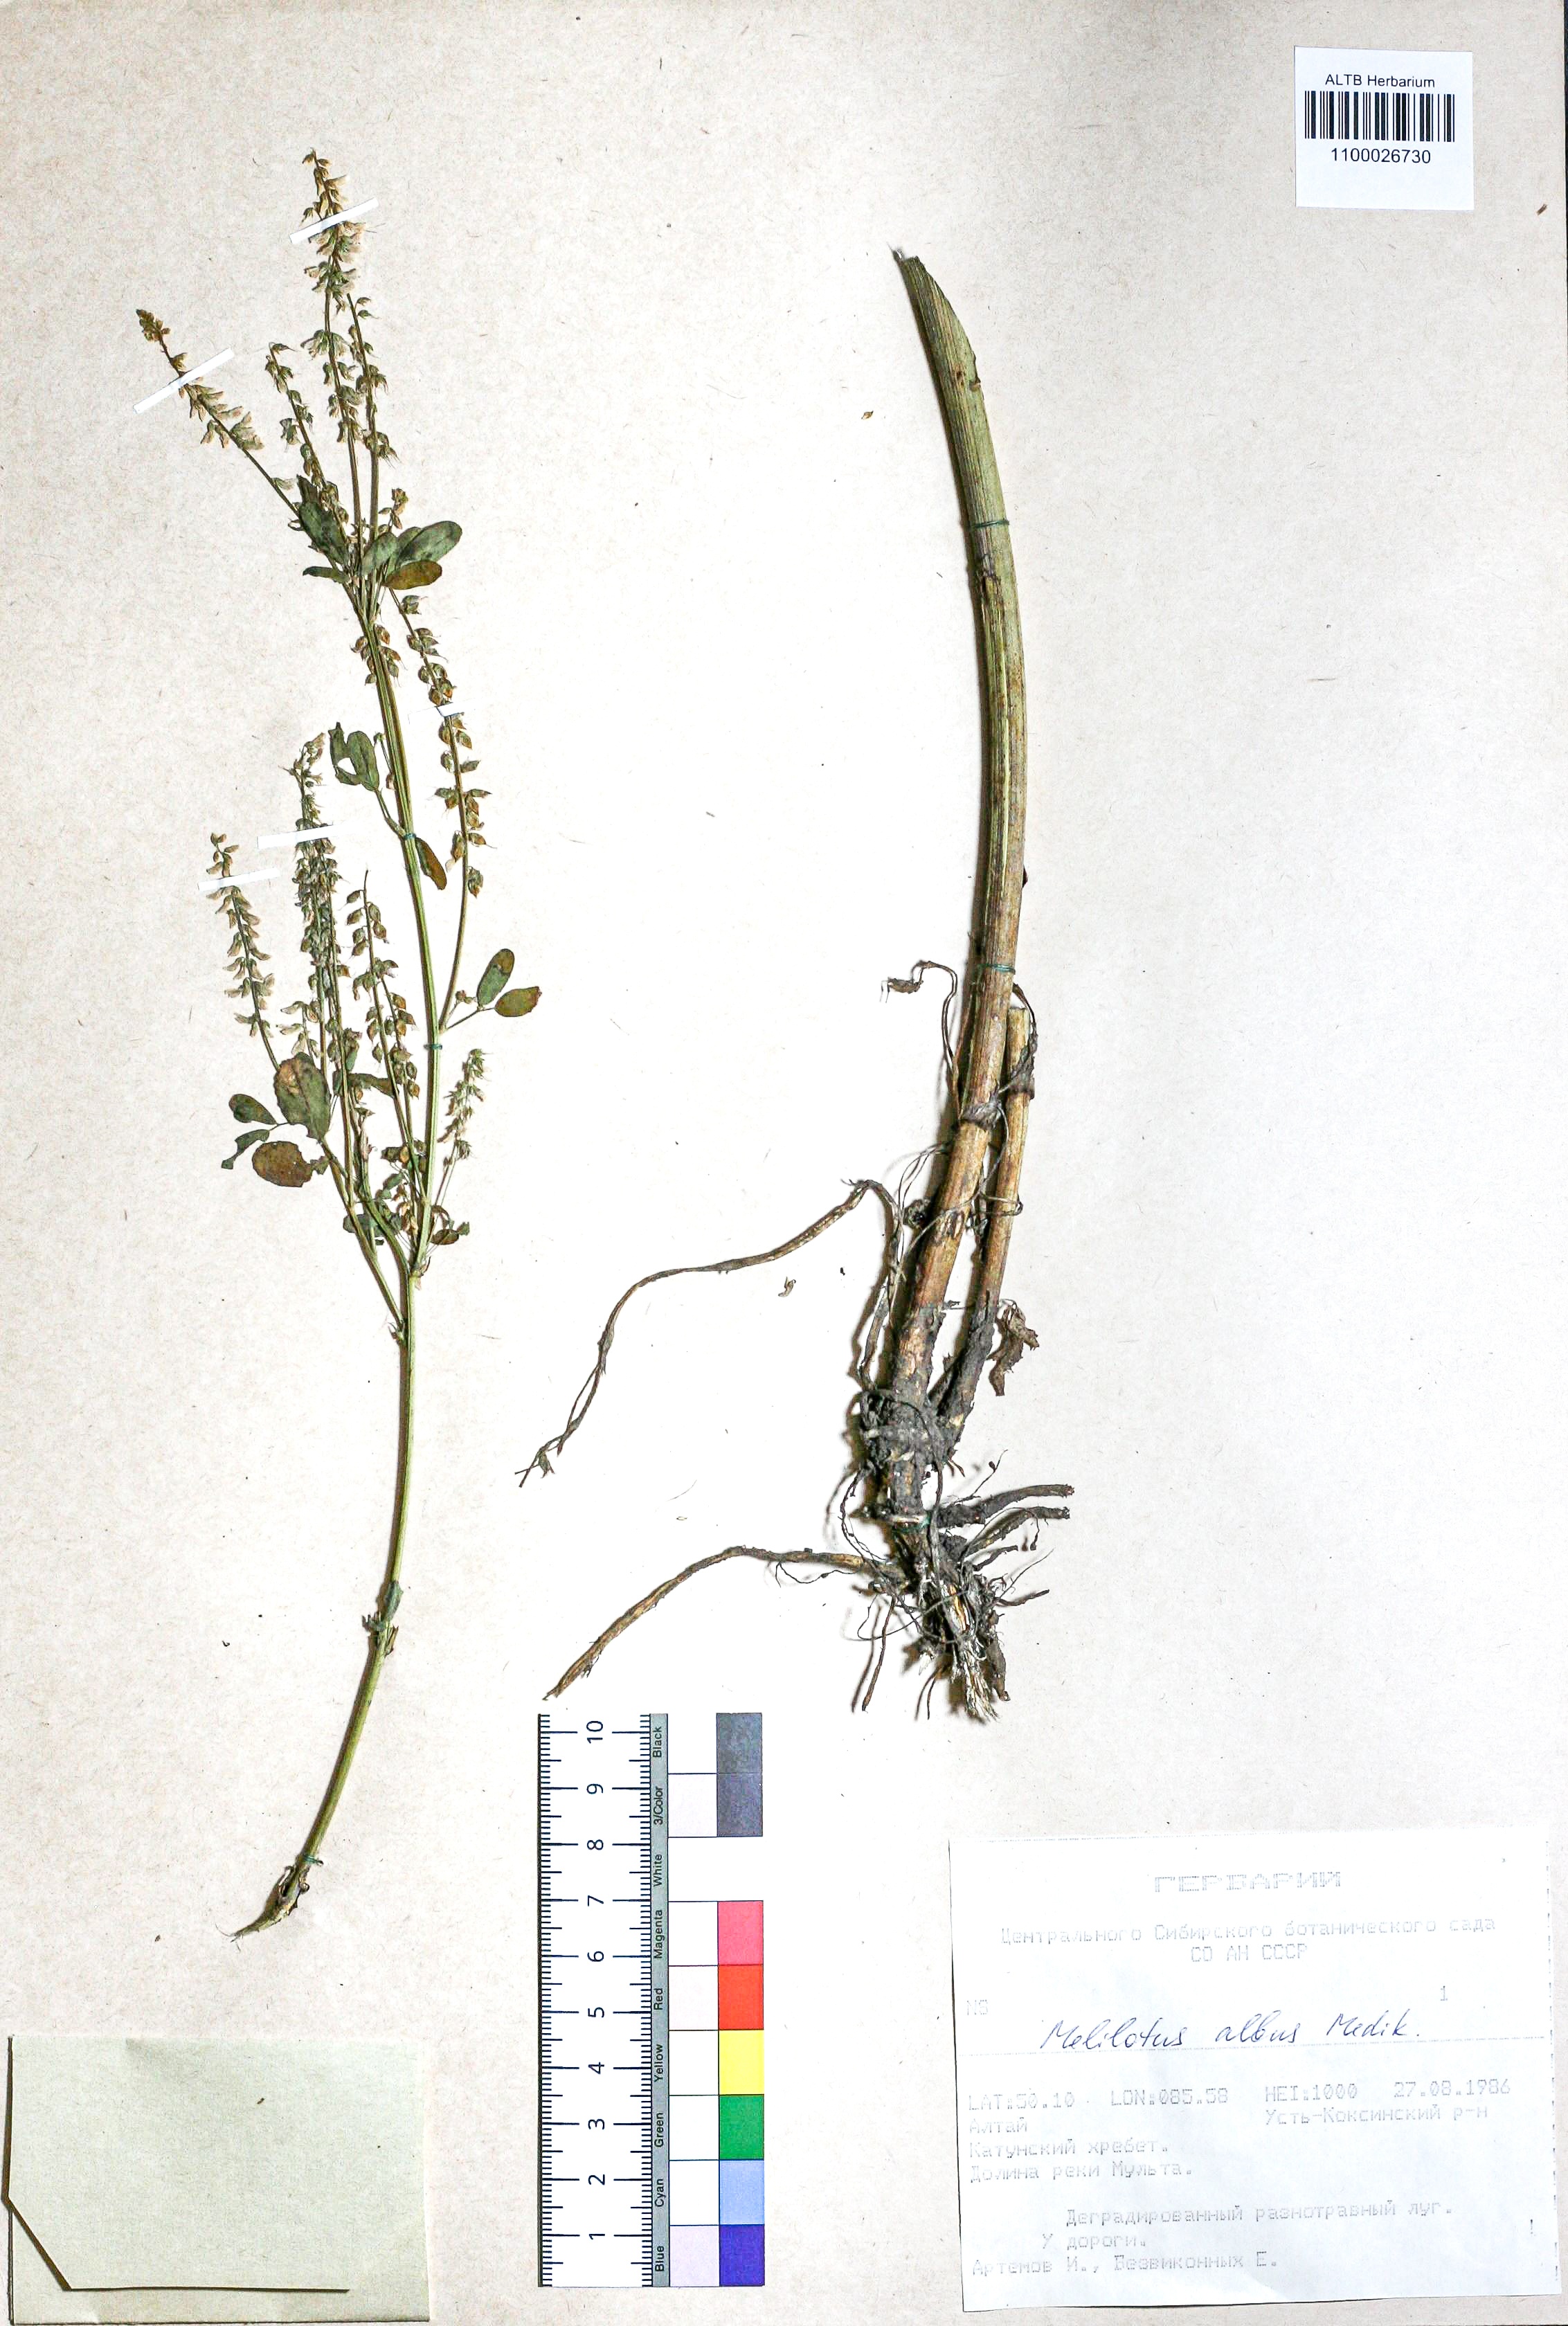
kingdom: Plantae
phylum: Tracheophyta
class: Magnoliopsida
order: Fabales
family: Fabaceae
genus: Melilotus
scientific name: Melilotus albus
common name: White melilot
